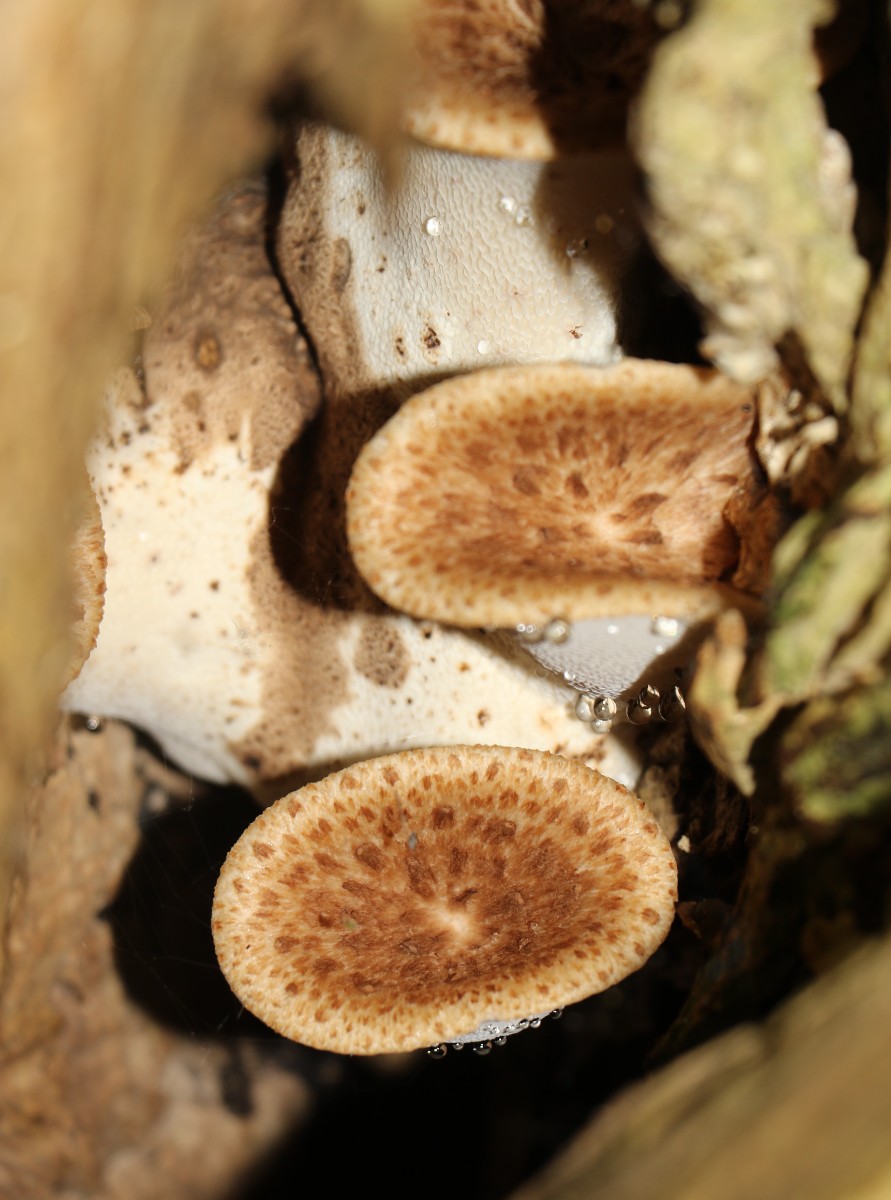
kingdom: Fungi
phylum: Basidiomycota
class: Agaricomycetes
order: Polyporales
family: Polyporaceae
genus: Cerioporus
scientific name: Cerioporus squamosus
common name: skællet stilkporesvamp
